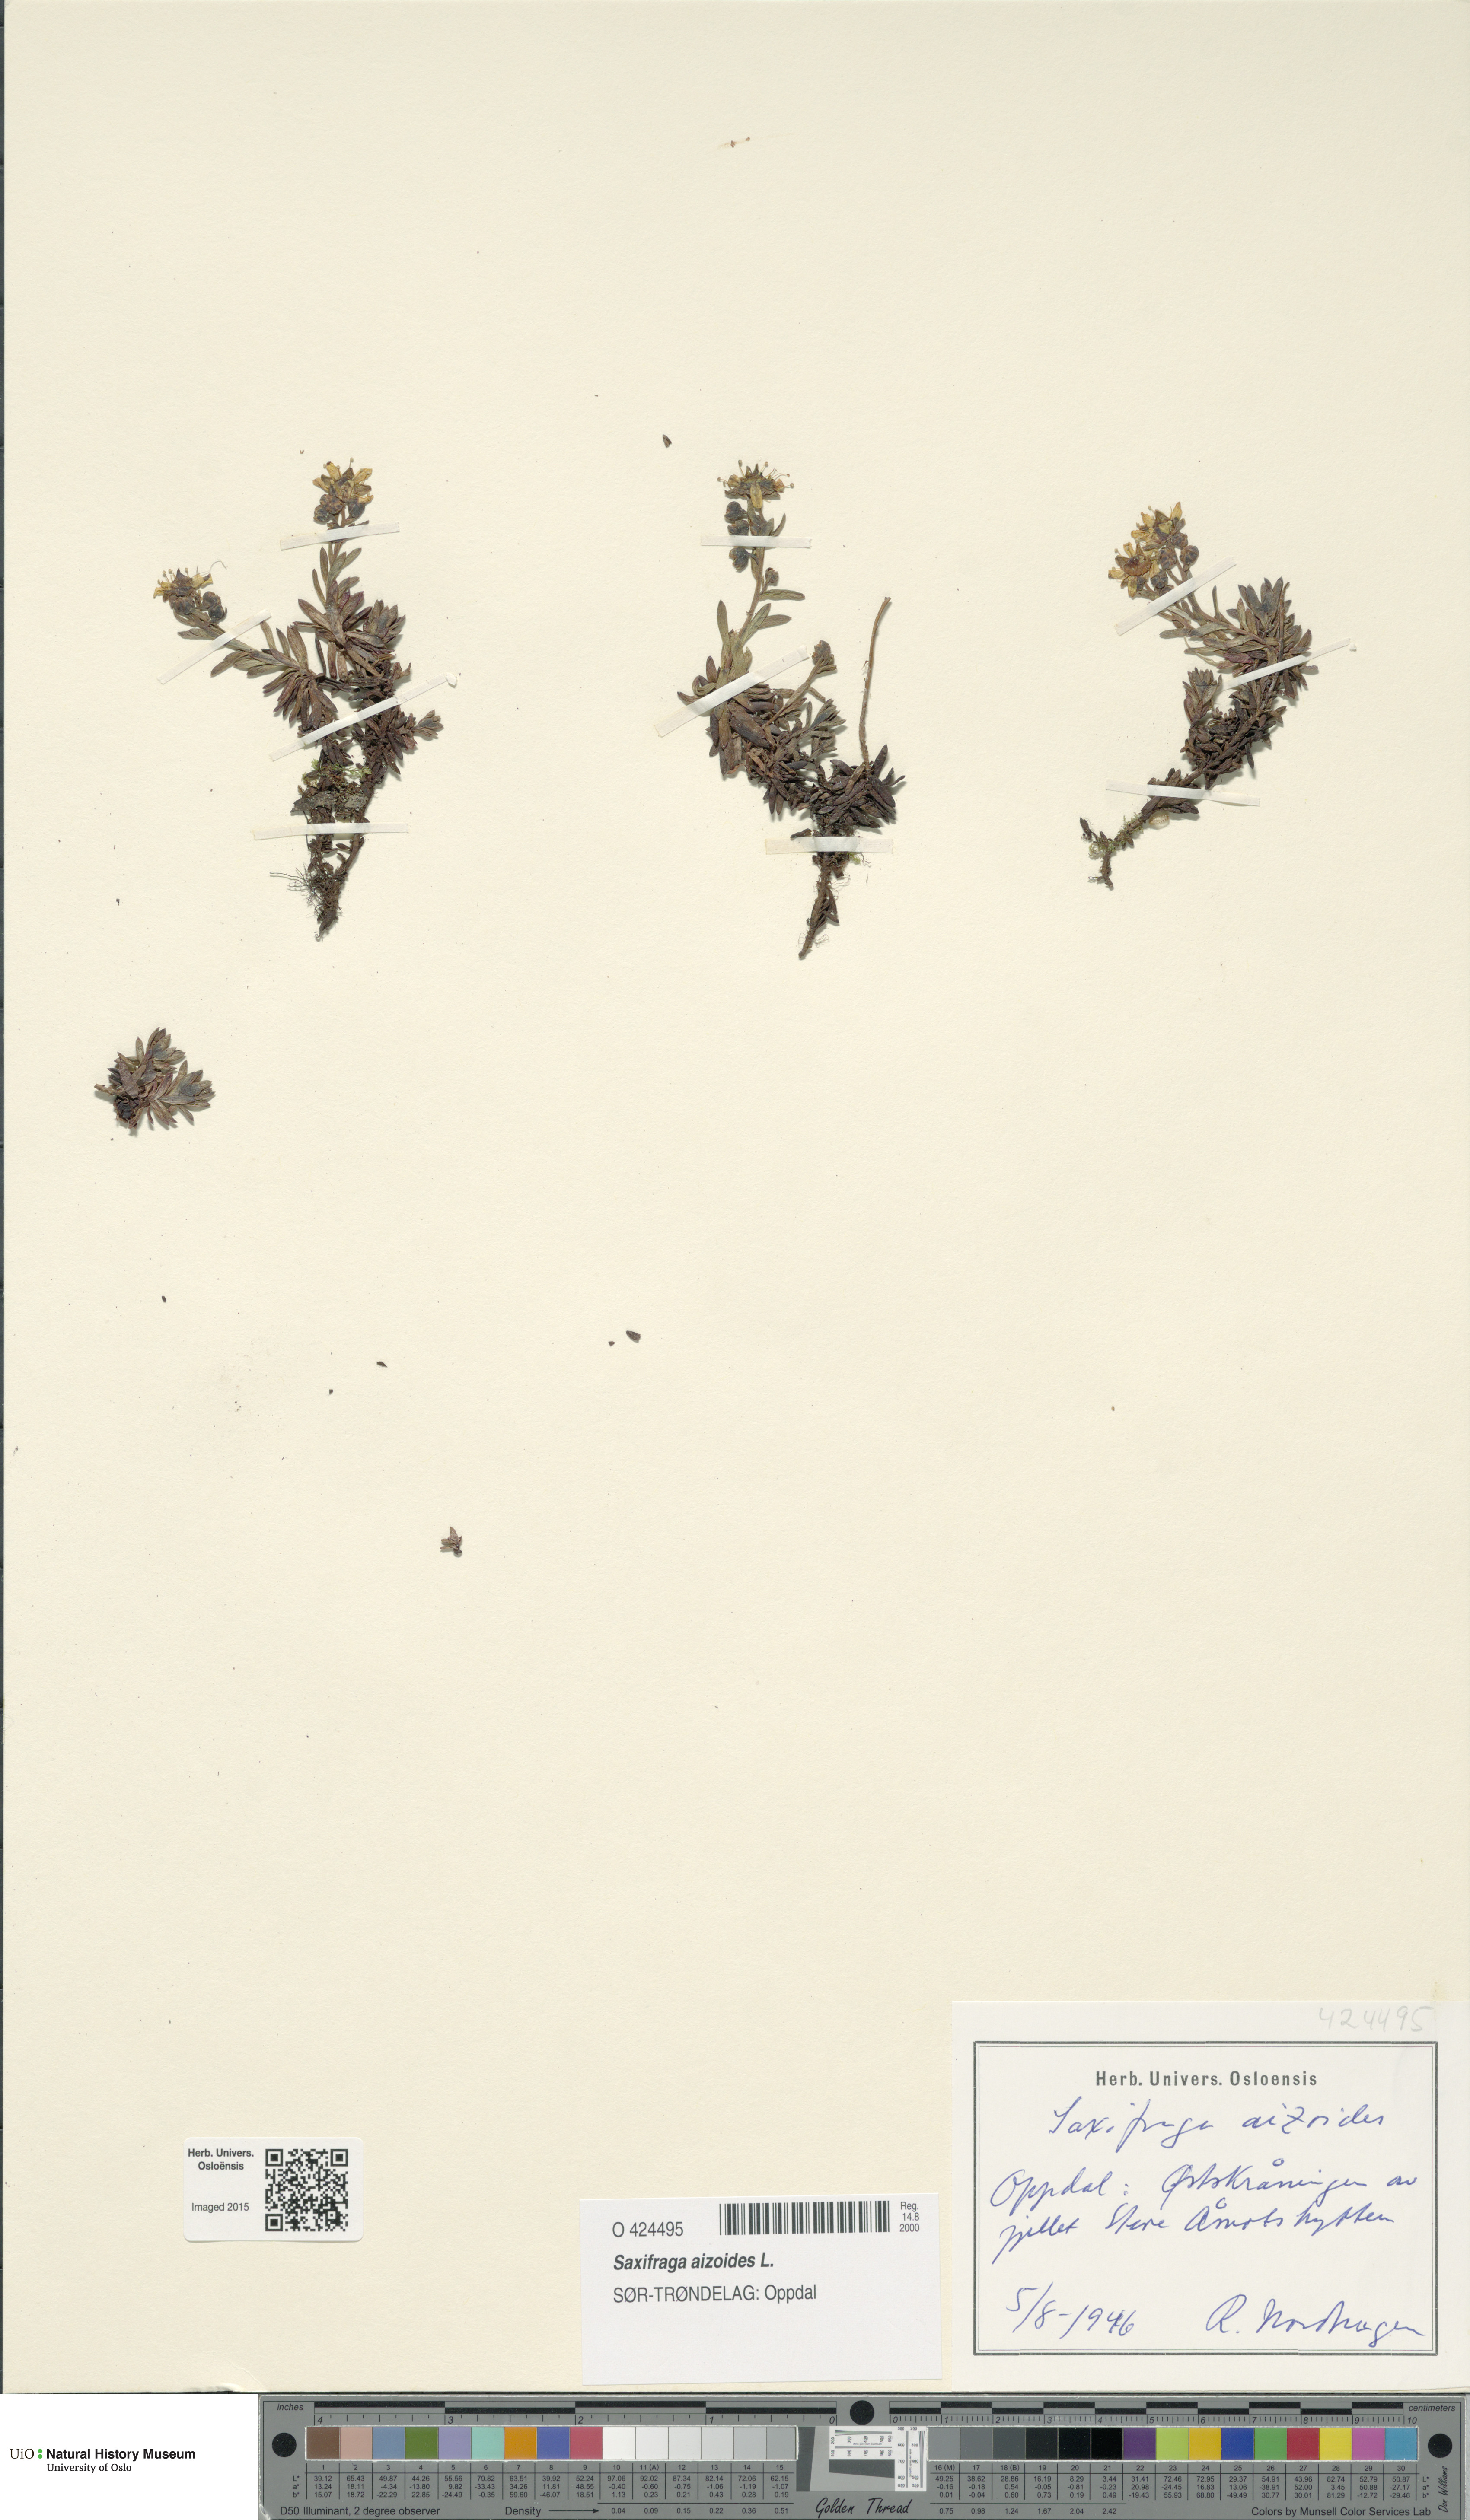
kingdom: Plantae
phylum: Tracheophyta
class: Magnoliopsida
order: Saxifragales
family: Saxifragaceae
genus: Saxifraga
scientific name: Saxifraga aizoides
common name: Yellow mountain saxifrage
